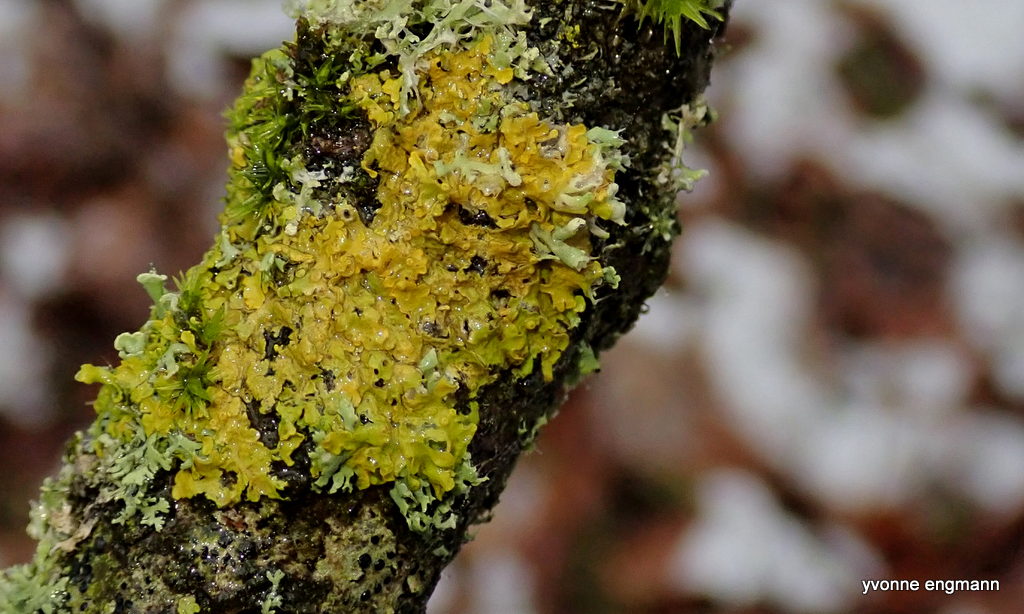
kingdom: Fungi
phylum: Ascomycota
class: Lecanoromycetes
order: Teloschistales
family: Teloschistaceae
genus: Xanthoria
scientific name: Xanthoria parietina
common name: almindelig væggelav
